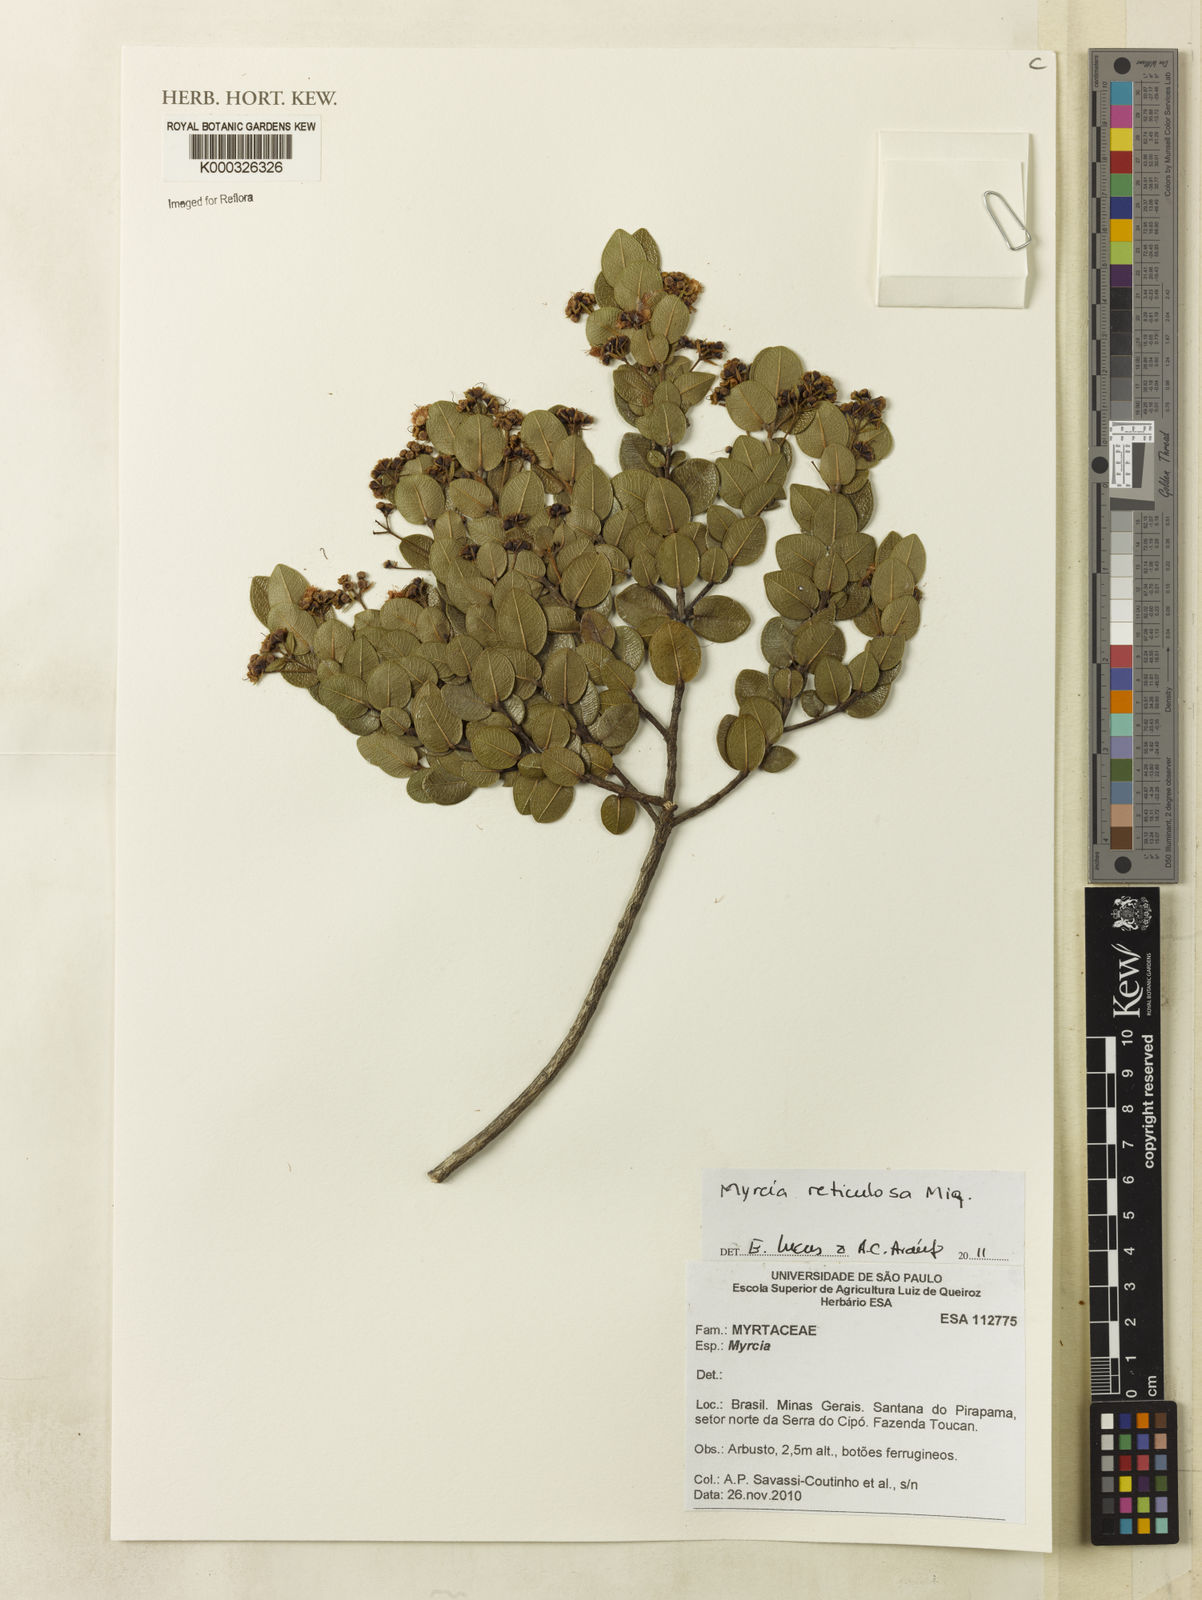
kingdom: Plantae
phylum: Tracheophyta
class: Magnoliopsida
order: Myrtales
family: Myrtaceae
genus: Myrcia
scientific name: Myrcia reticulosa
